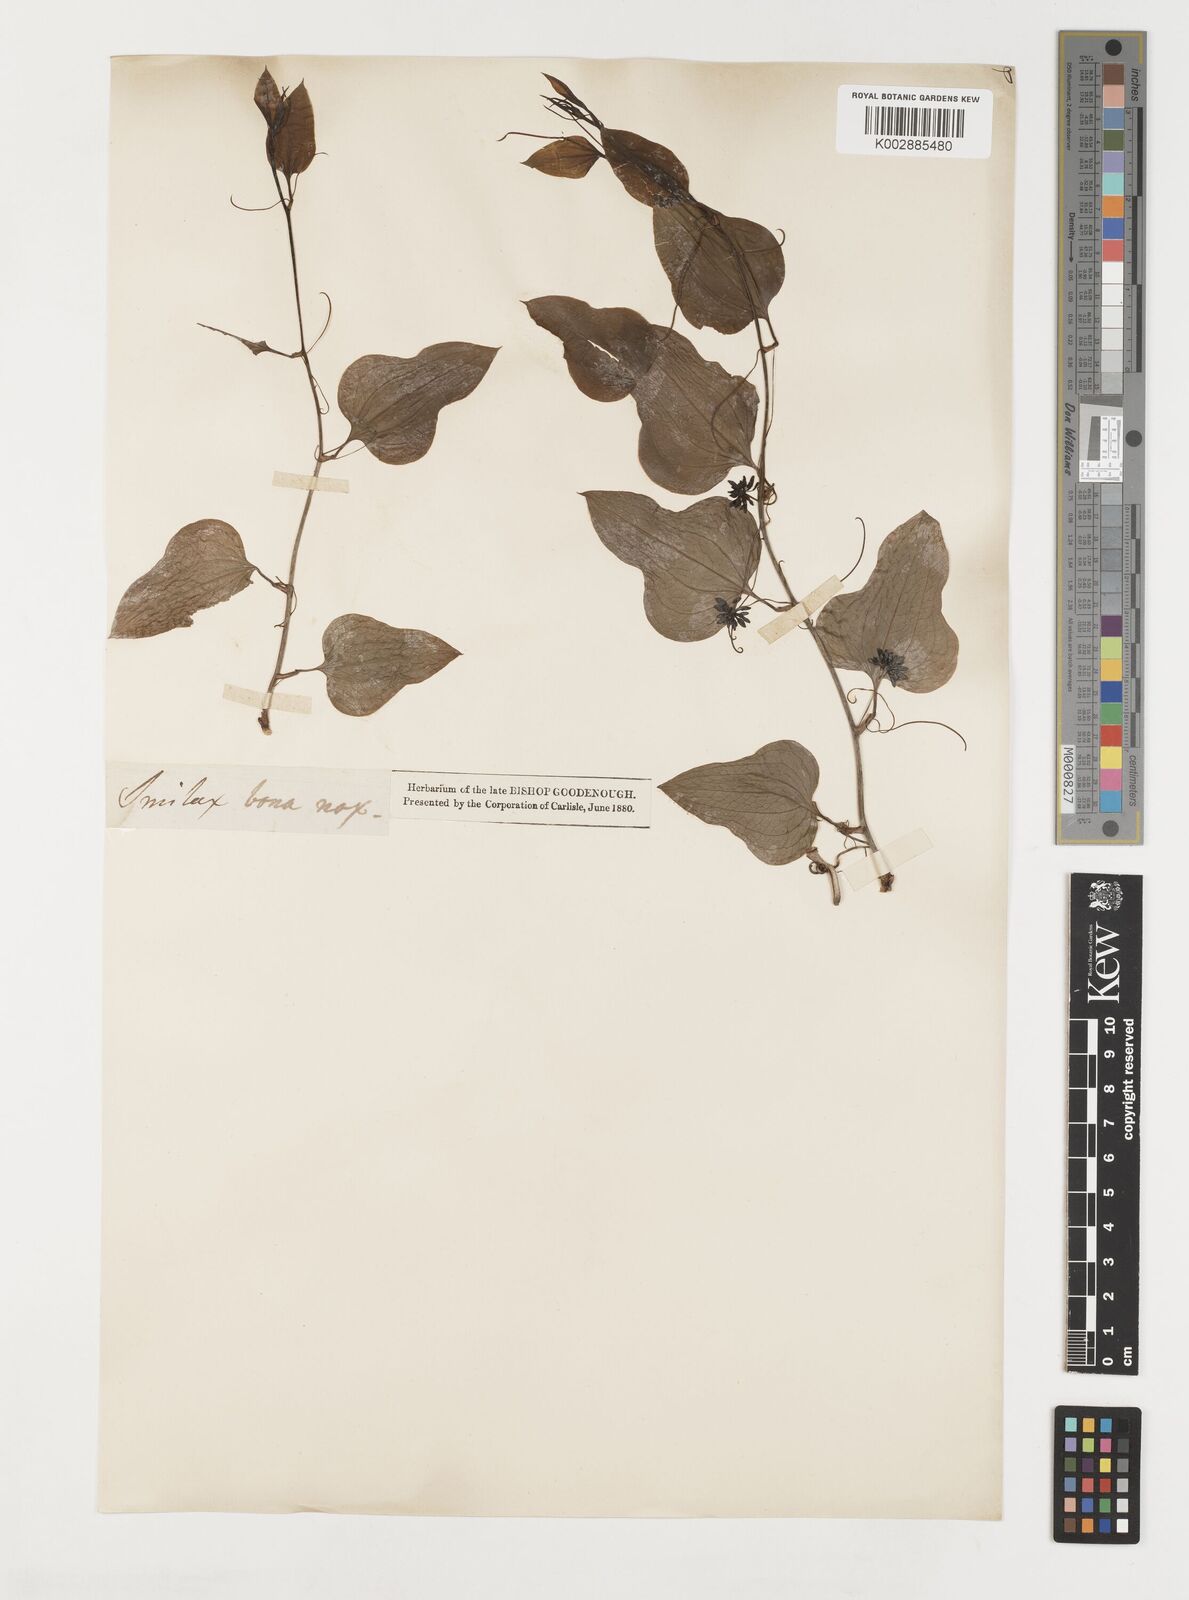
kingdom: Plantae
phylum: Tracheophyta
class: Liliopsida
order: Liliales
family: Smilacaceae
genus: Smilax
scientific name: Smilax
